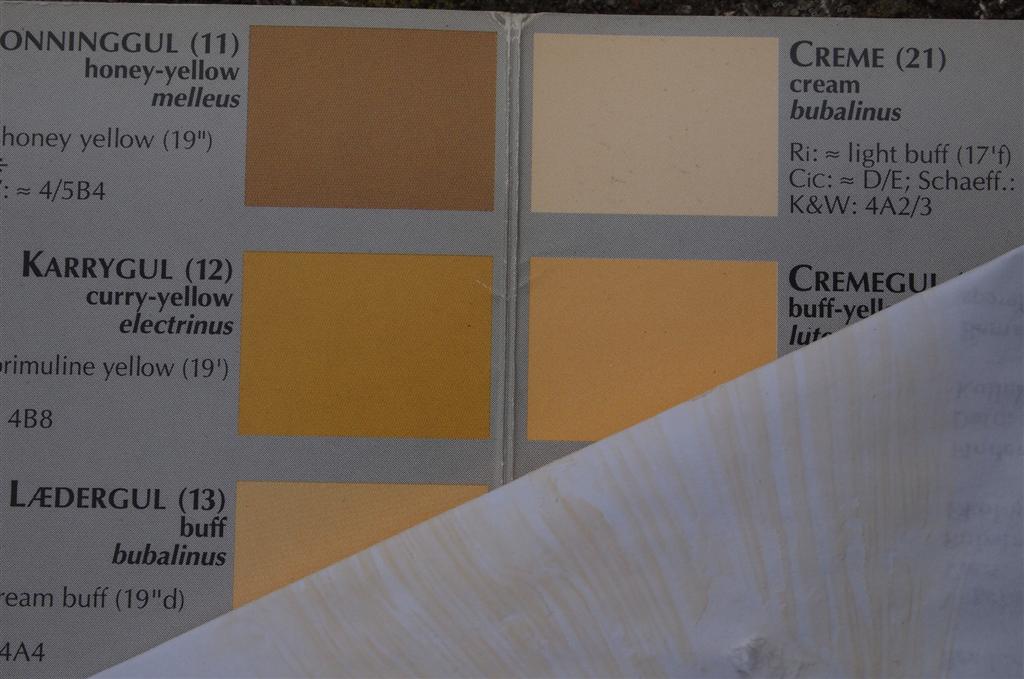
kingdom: Fungi
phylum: Basidiomycota
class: Agaricomycetes
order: Russulales
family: Russulaceae
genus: Russula
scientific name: Russula foetens
